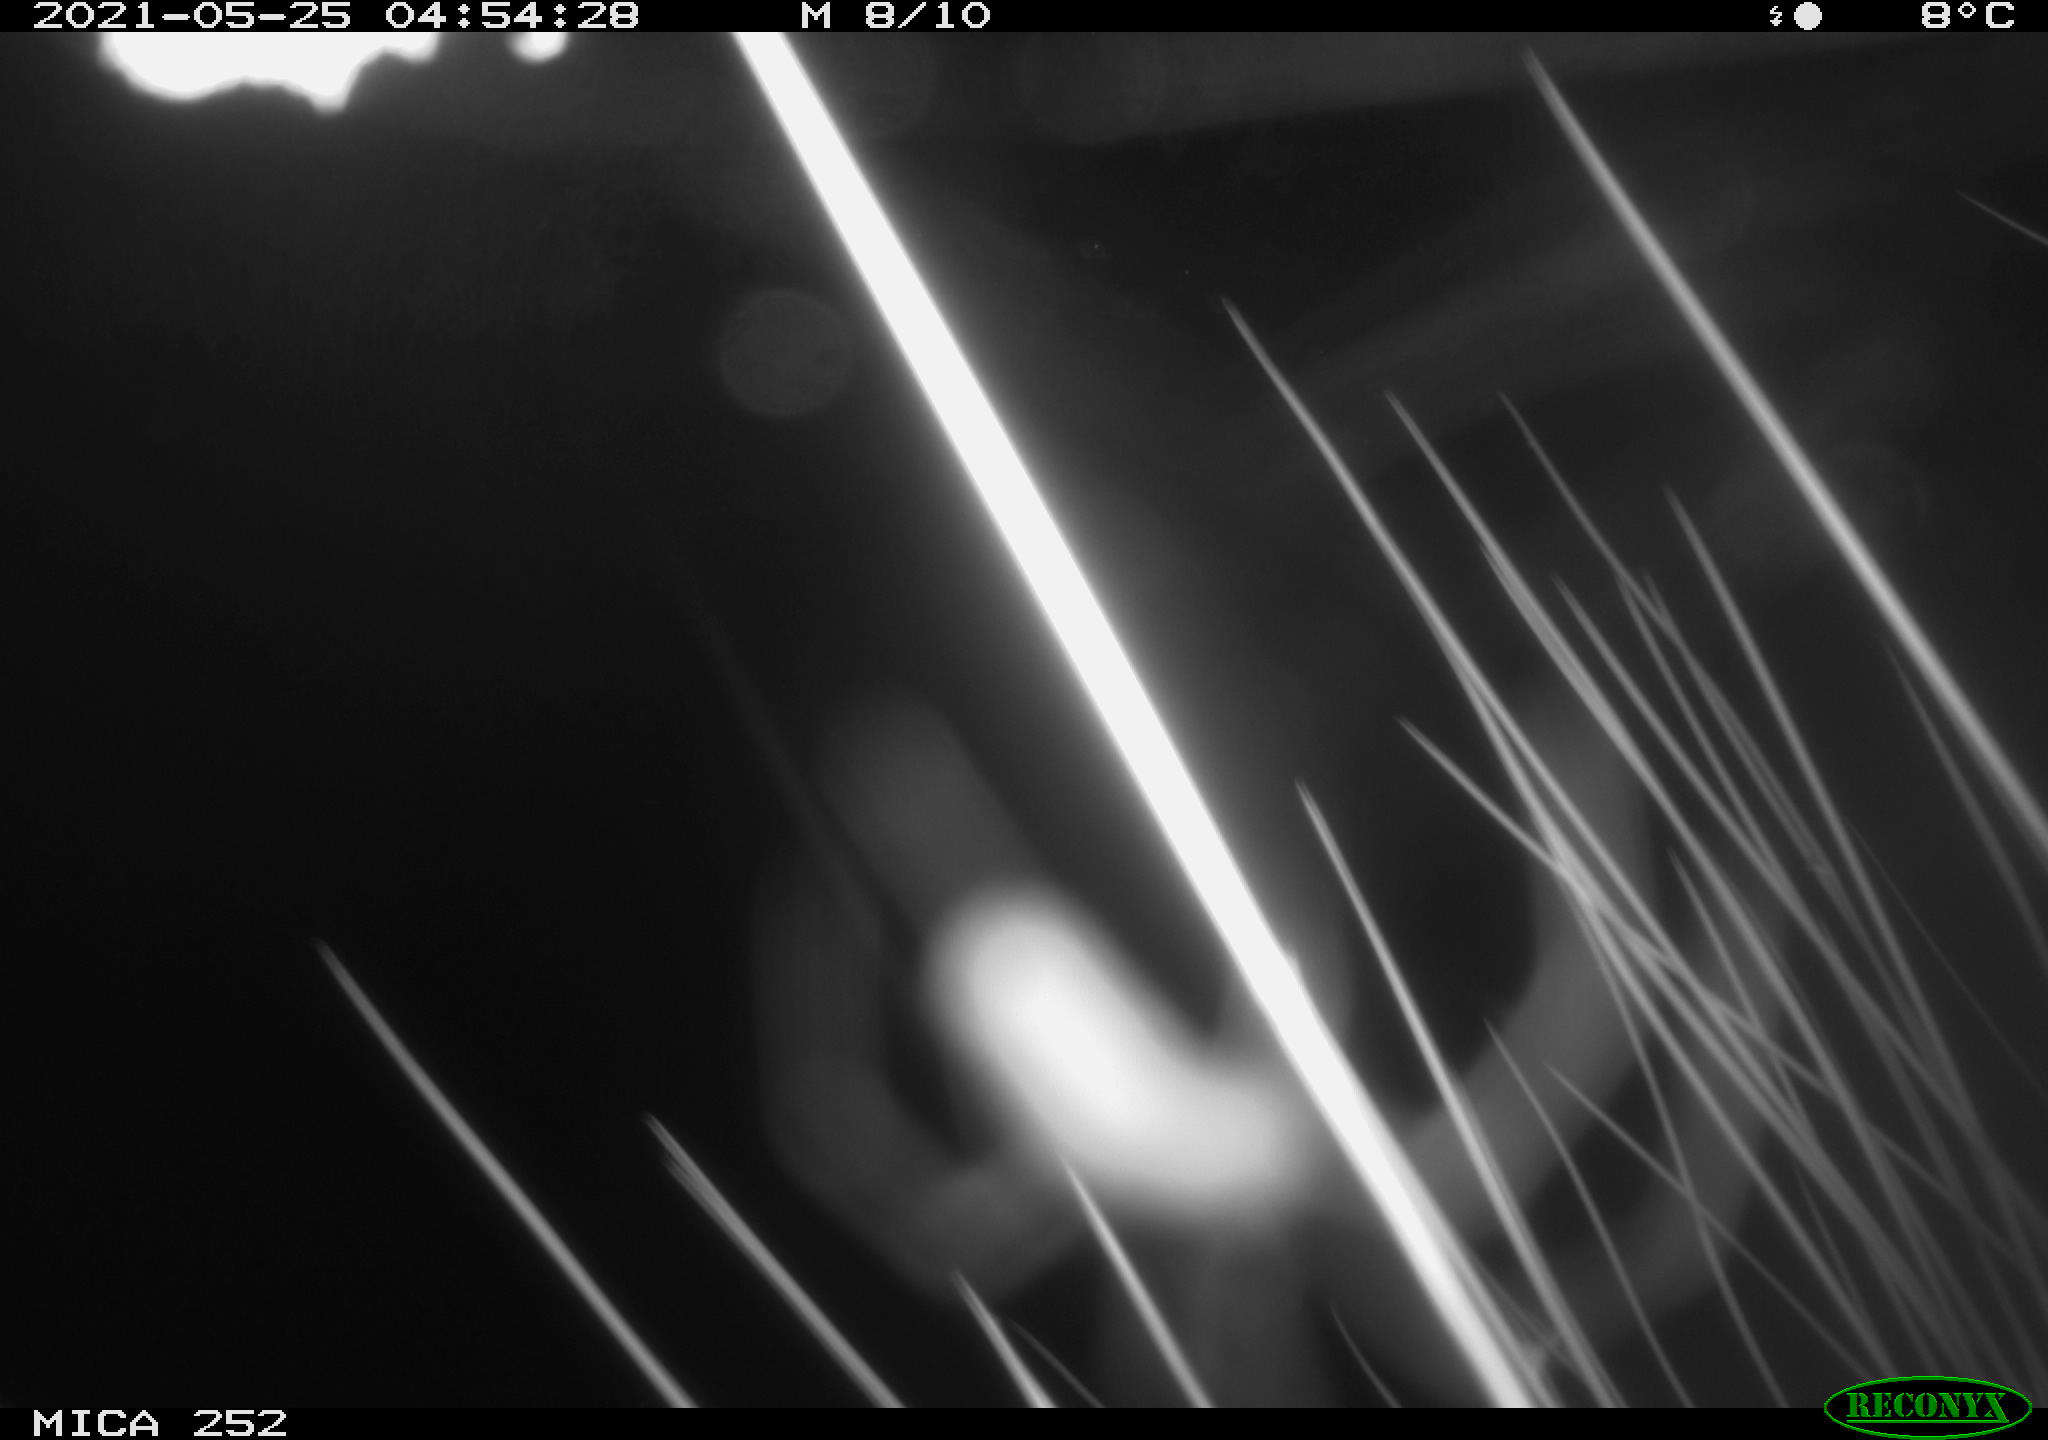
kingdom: Animalia
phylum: Chordata
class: Aves
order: Anseriformes
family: Anatidae
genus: Anas
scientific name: Anas
